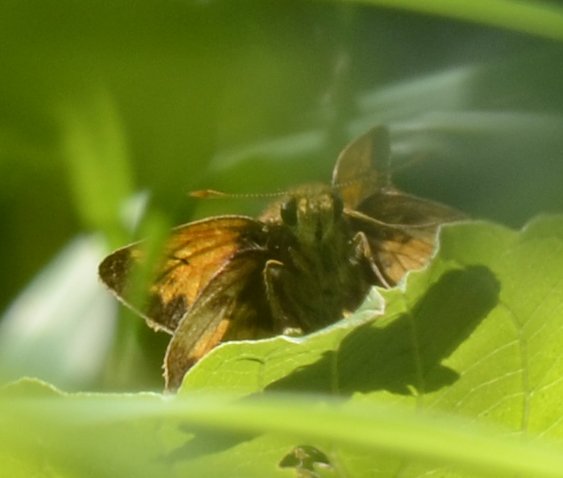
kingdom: Animalia
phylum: Arthropoda
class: Insecta
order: Lepidoptera
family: Hesperiidae
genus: Lon
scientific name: Lon hobomok
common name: Hobomok Skipper
